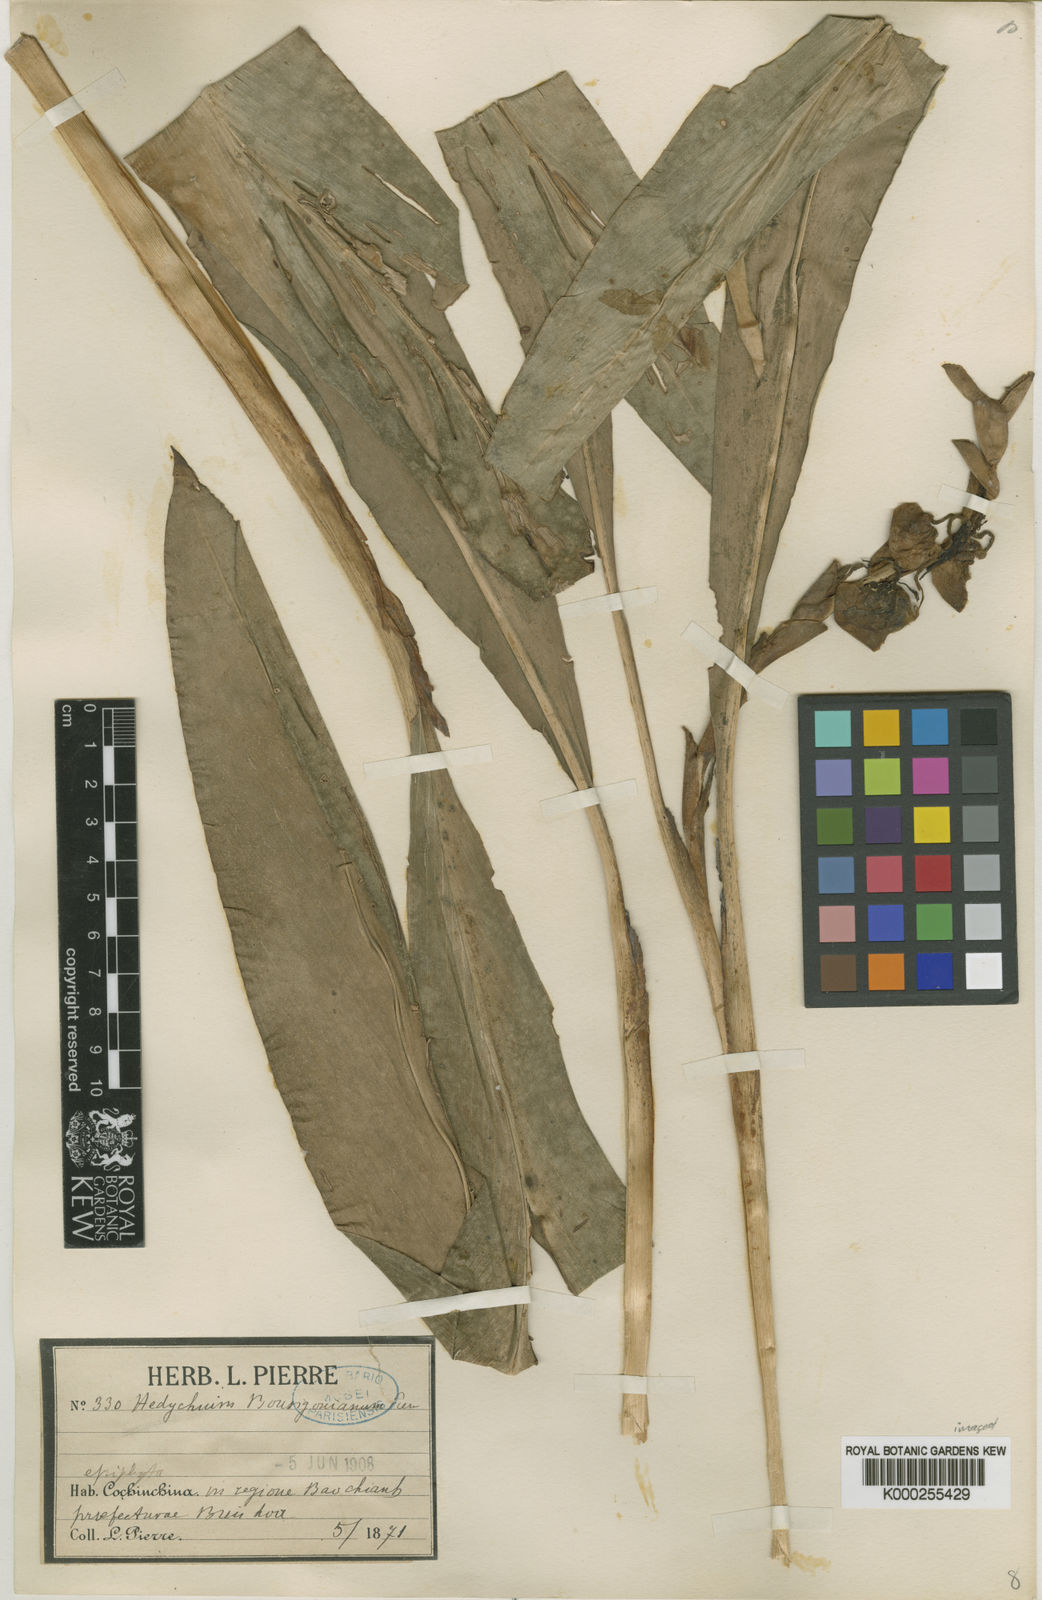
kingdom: Plantae
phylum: Tracheophyta
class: Liliopsida
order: Zingiberales
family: Zingiberaceae
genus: Hedychium
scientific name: Hedychium bousigonianum
